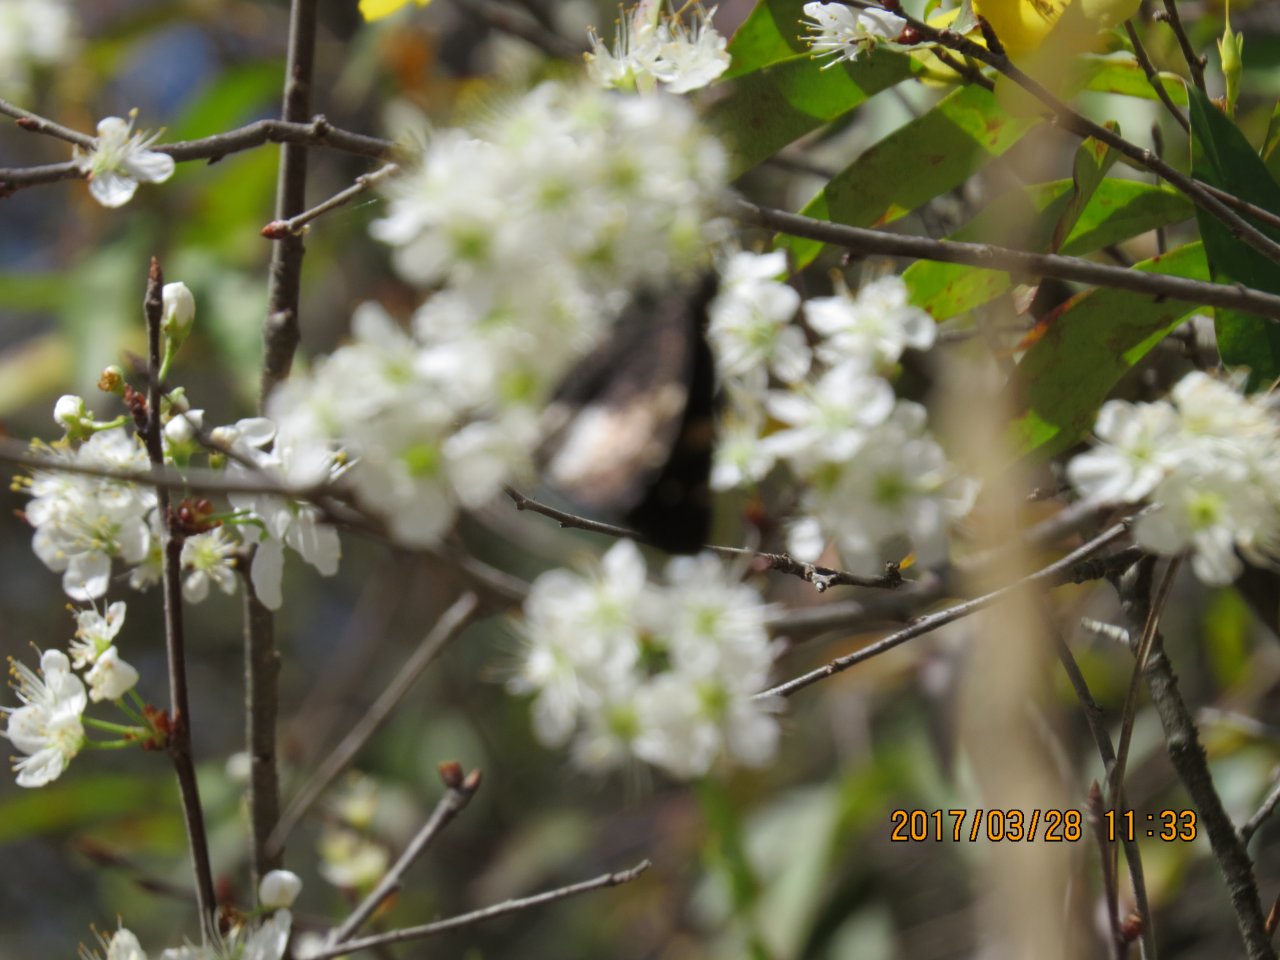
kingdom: Animalia
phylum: Arthropoda
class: Insecta
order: Lepidoptera
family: Hesperiidae
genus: Achalarus
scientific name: Achalarus lyciades
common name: Hoary Edge
